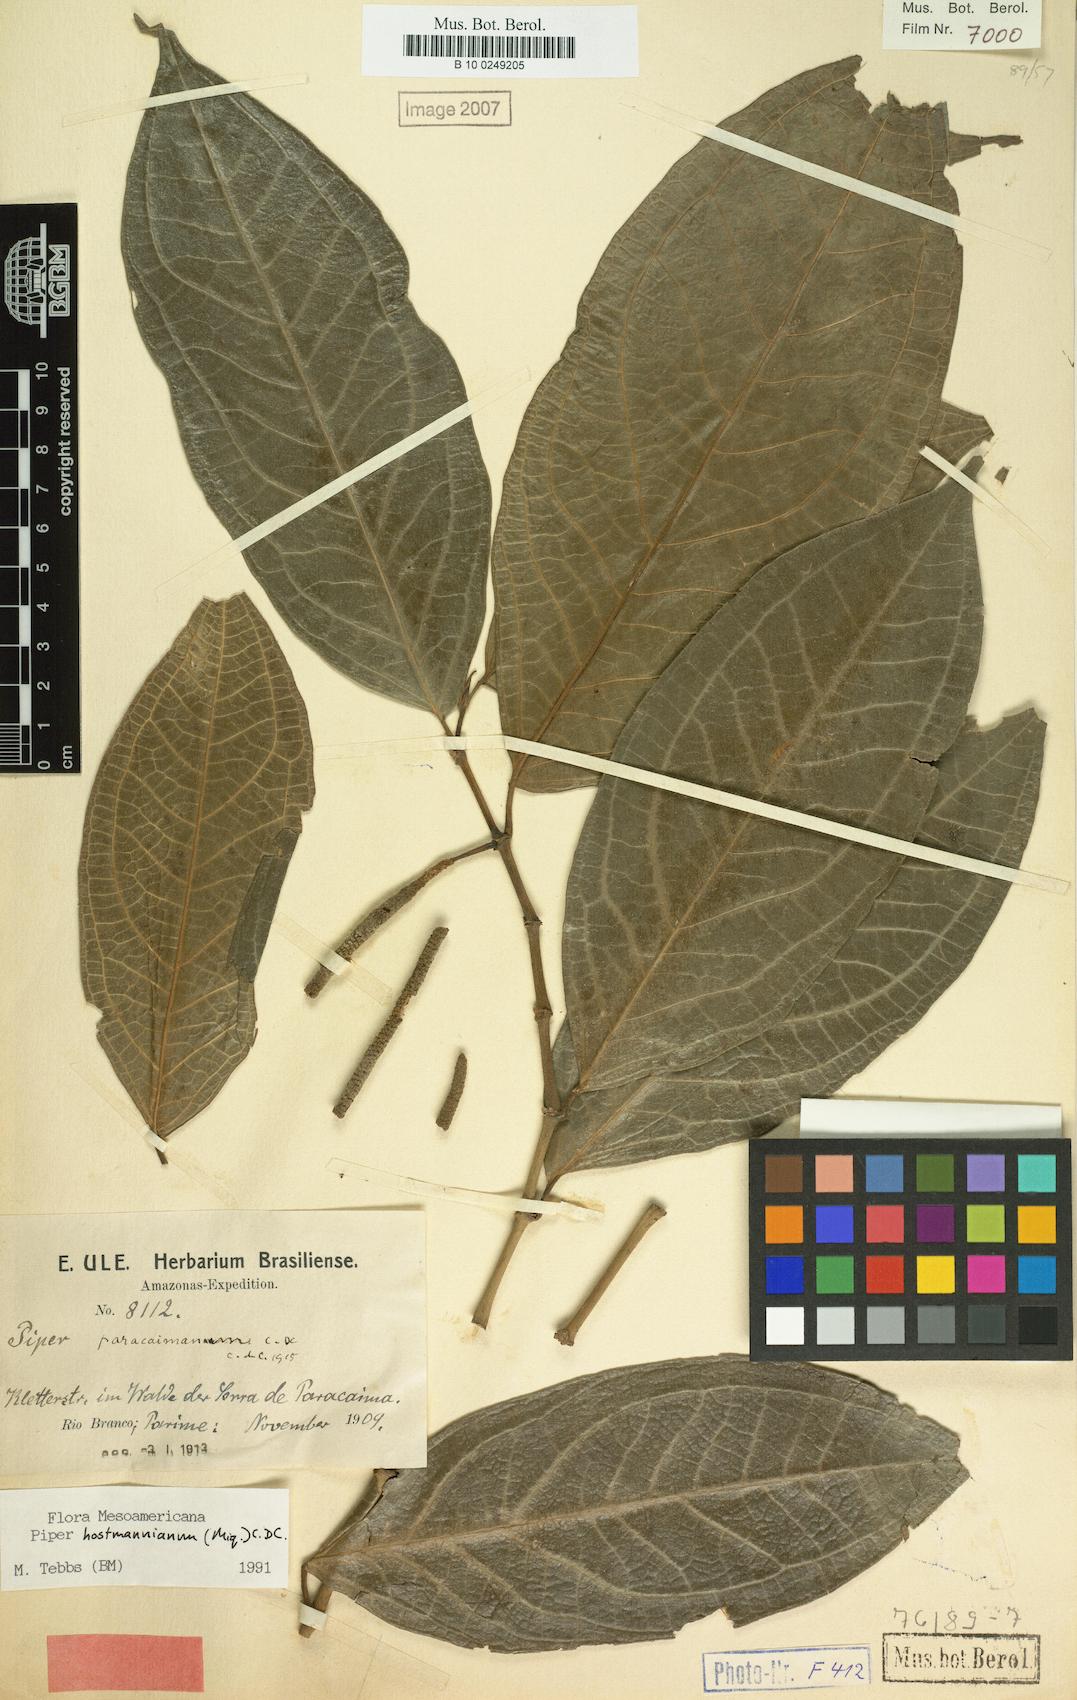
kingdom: Plantae
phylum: Tracheophyta
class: Magnoliopsida
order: Piperales
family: Piperaceae
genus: Piper
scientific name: Piper hostmannianum
